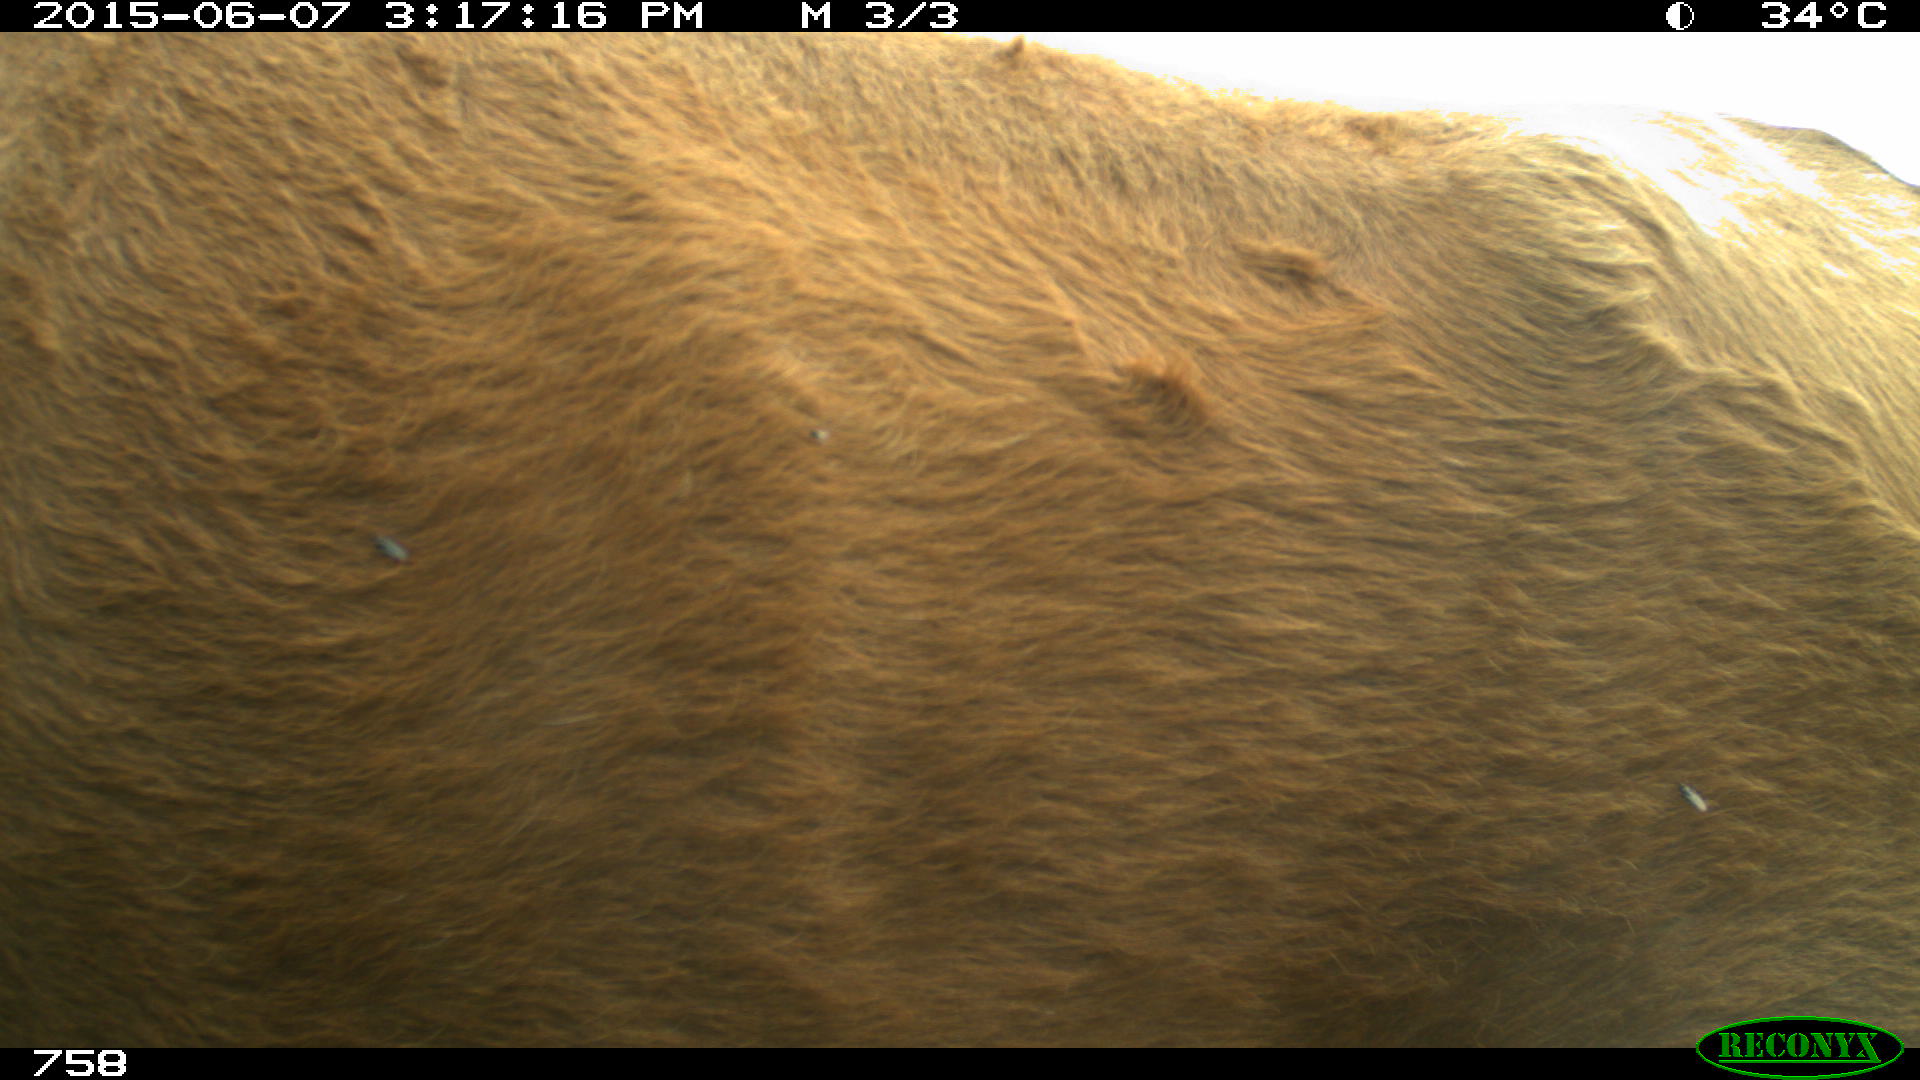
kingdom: Animalia
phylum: Chordata
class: Mammalia
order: Artiodactyla
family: Bovidae
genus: Bos
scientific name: Bos taurus
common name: Domesticated cattle
